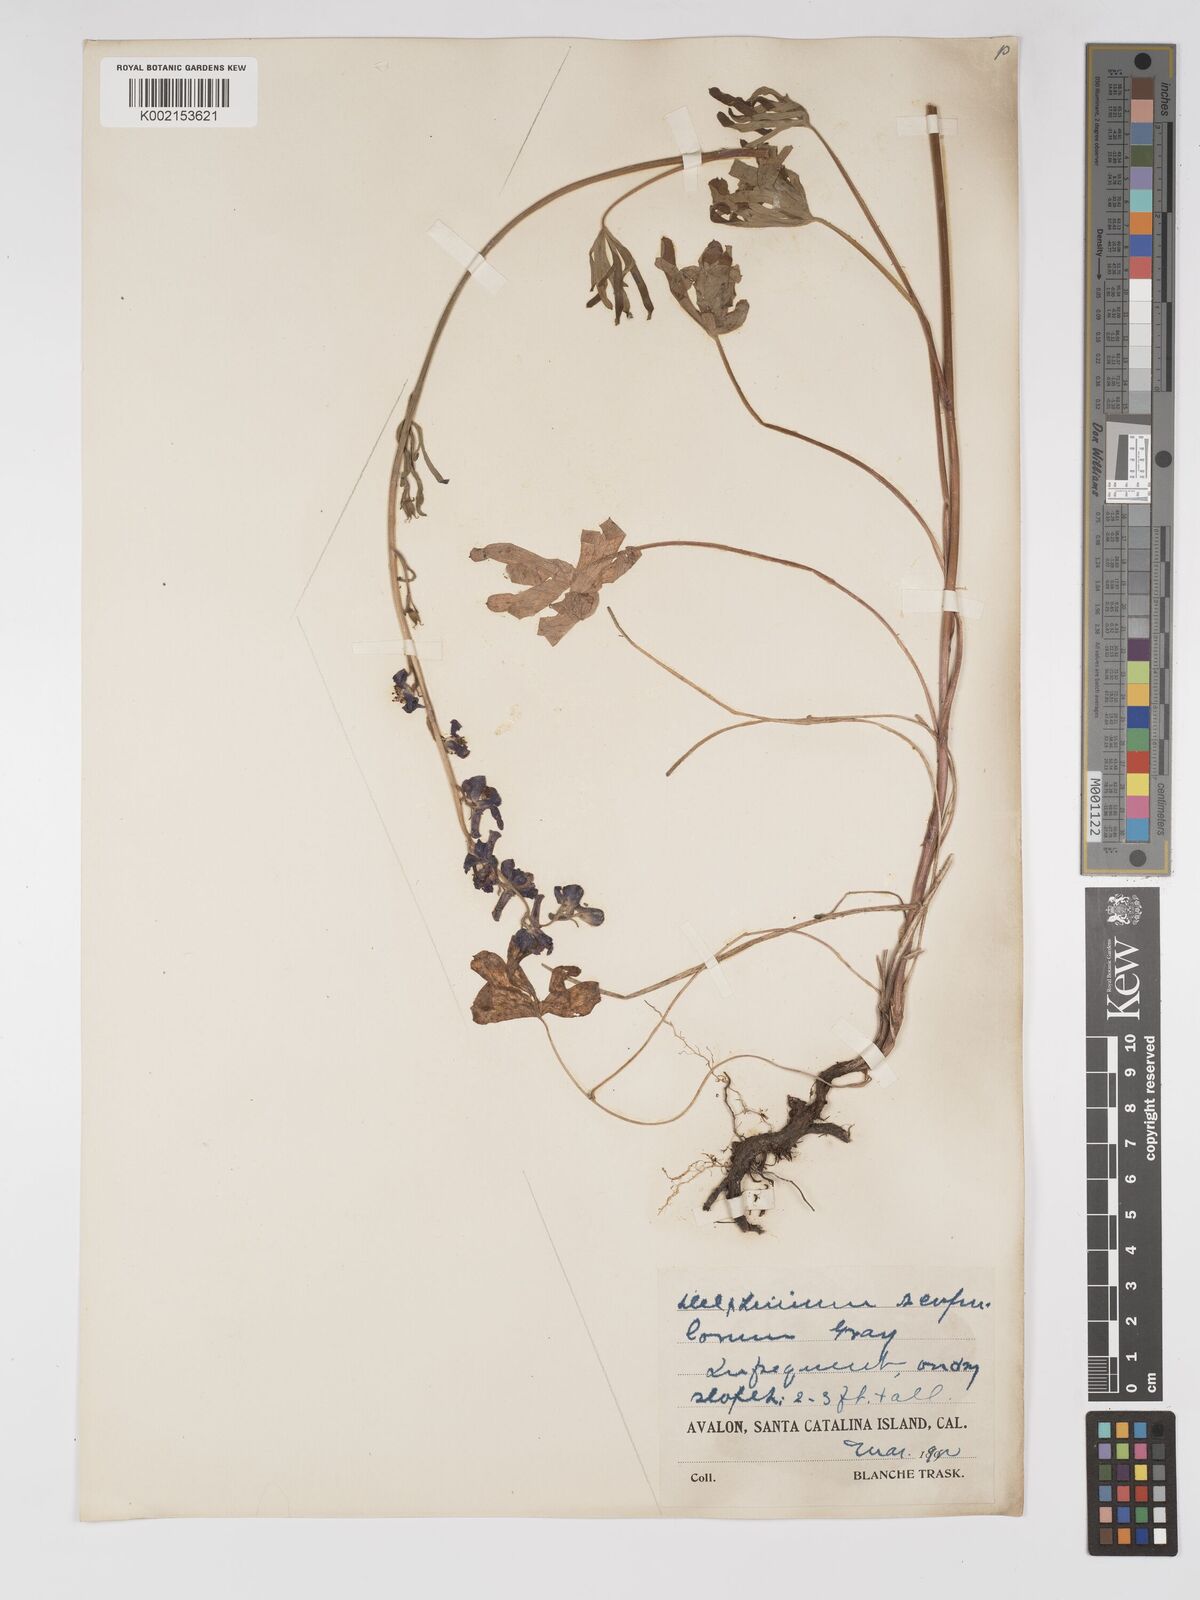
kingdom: Plantae
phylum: Tracheophyta
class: Magnoliopsida
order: Ranunculales
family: Ranunculaceae
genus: Delphinium
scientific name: Delphinium parryi
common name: Parry's larkspur
